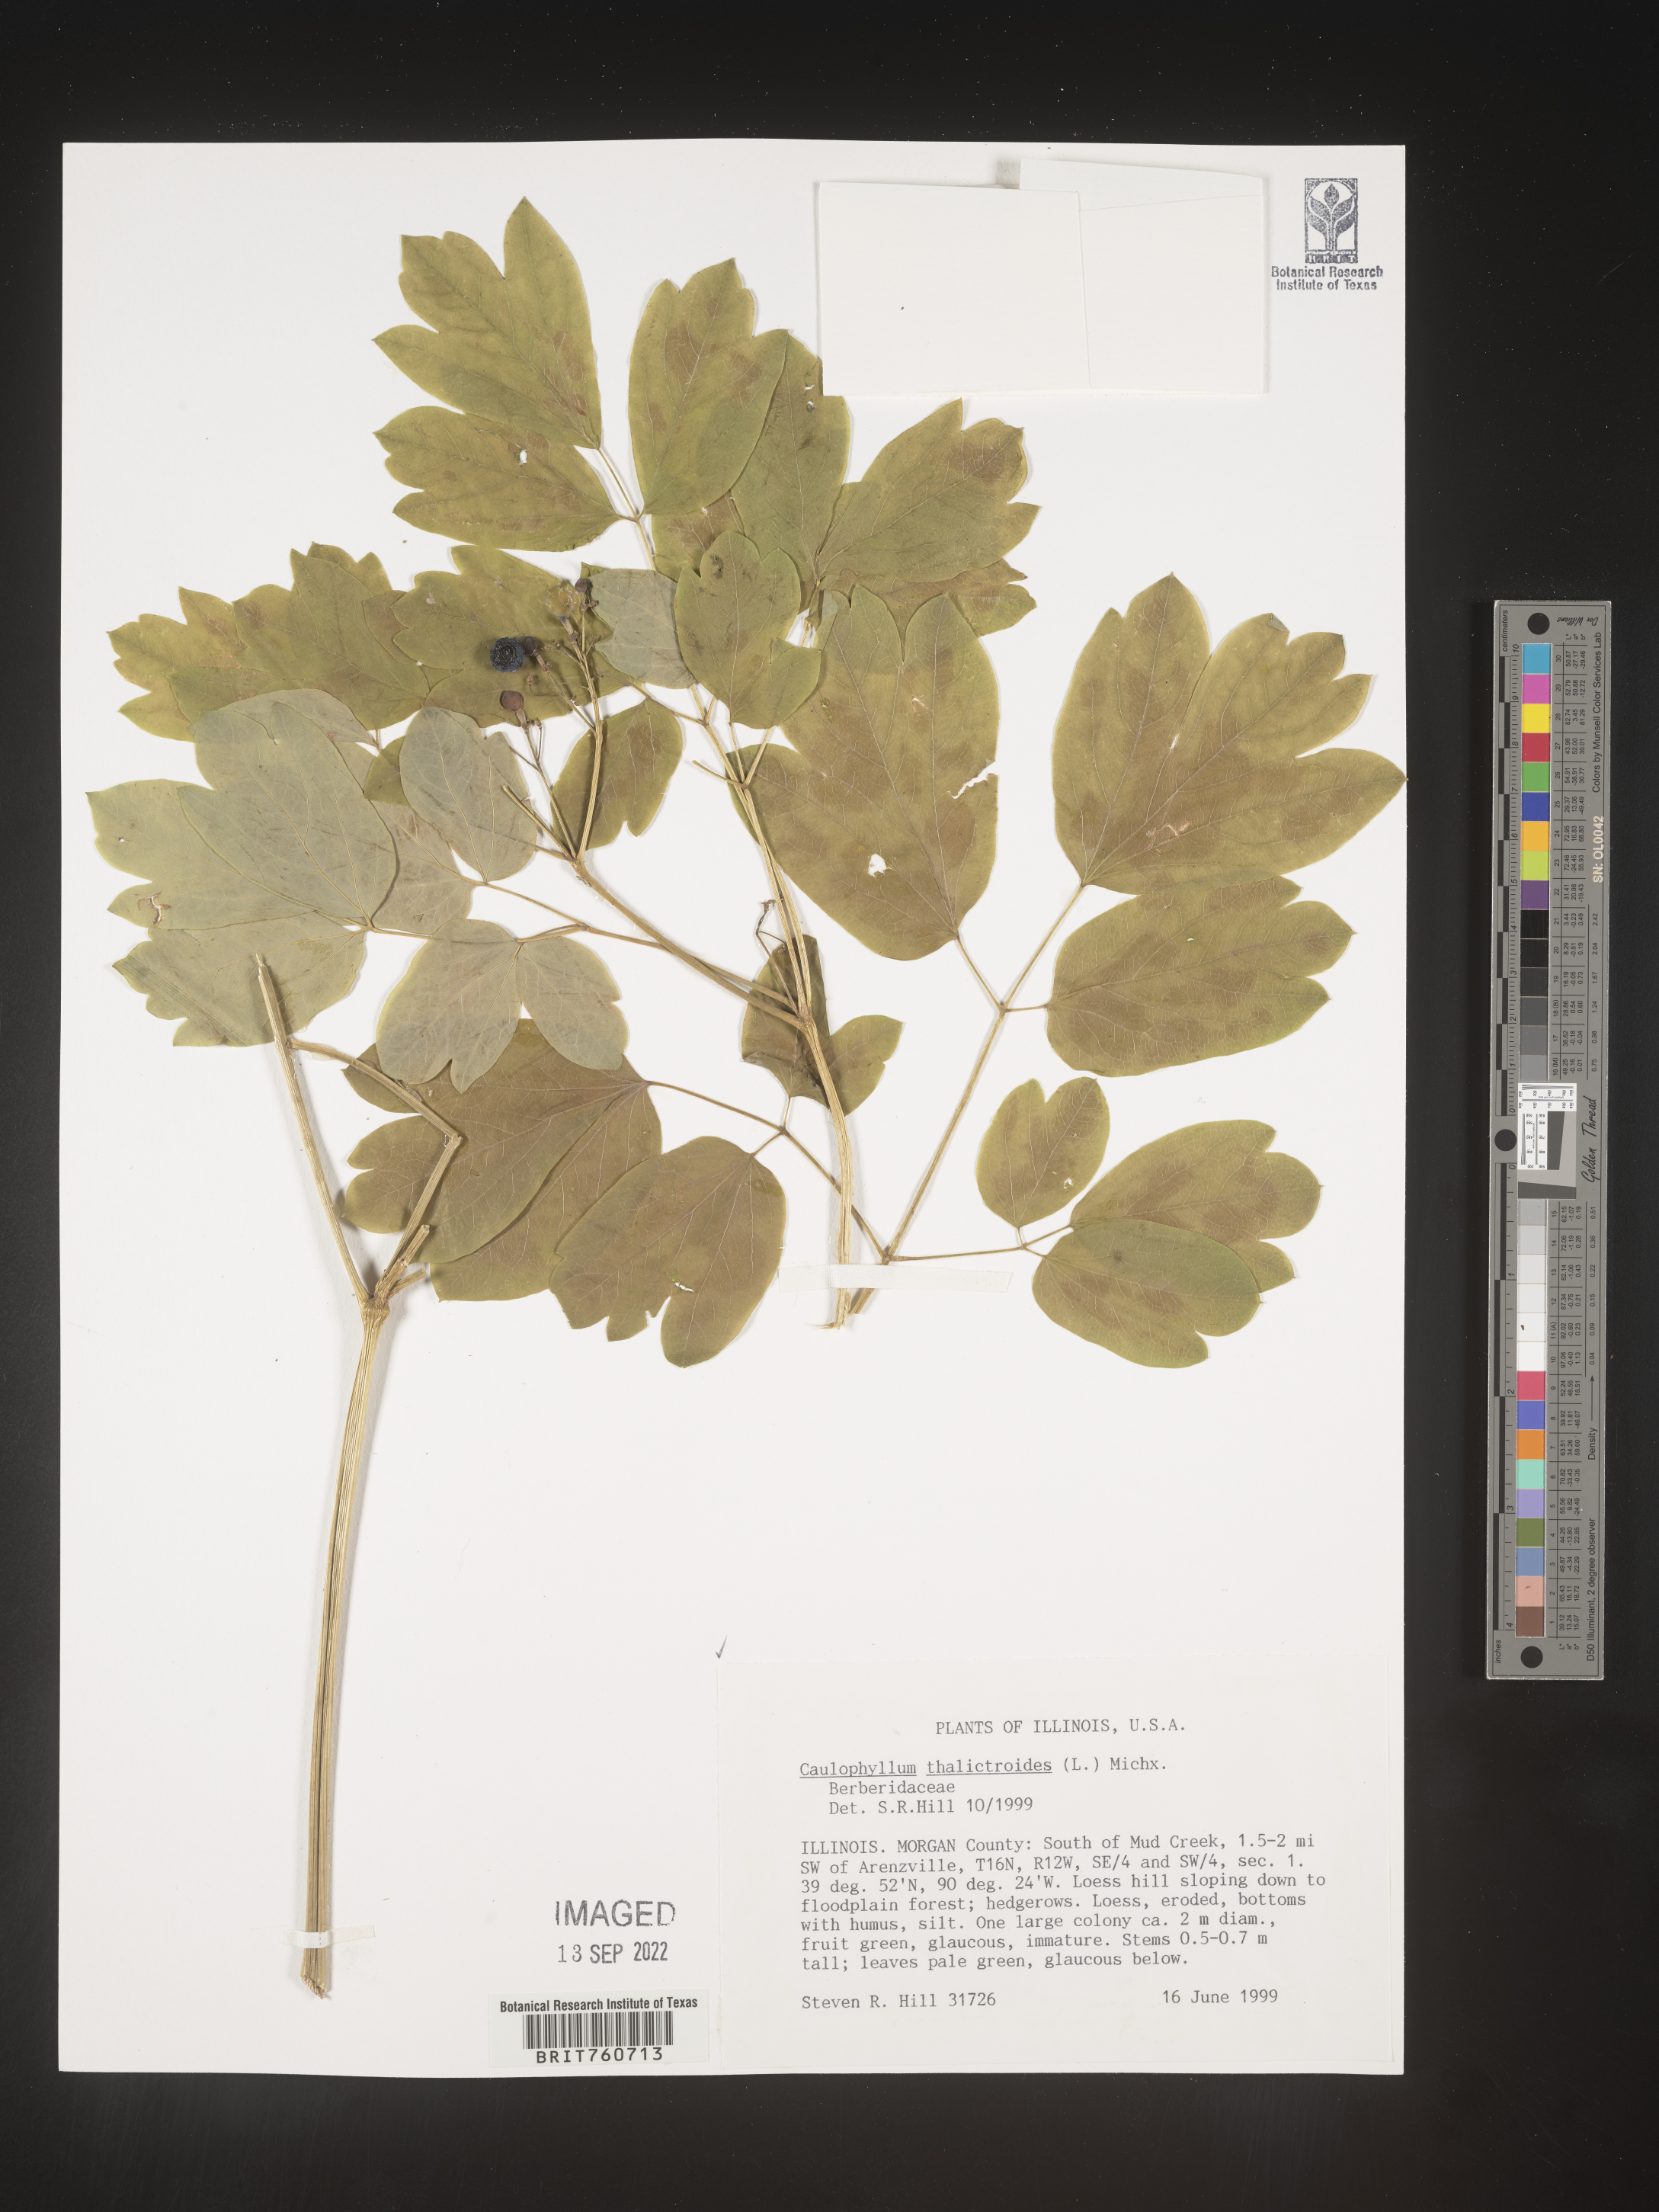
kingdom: Plantae
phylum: Tracheophyta
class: Magnoliopsida
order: Ranunculales
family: Berberidaceae
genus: Caulophyllum
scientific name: Caulophyllum thalictroides
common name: Blue cohosh
